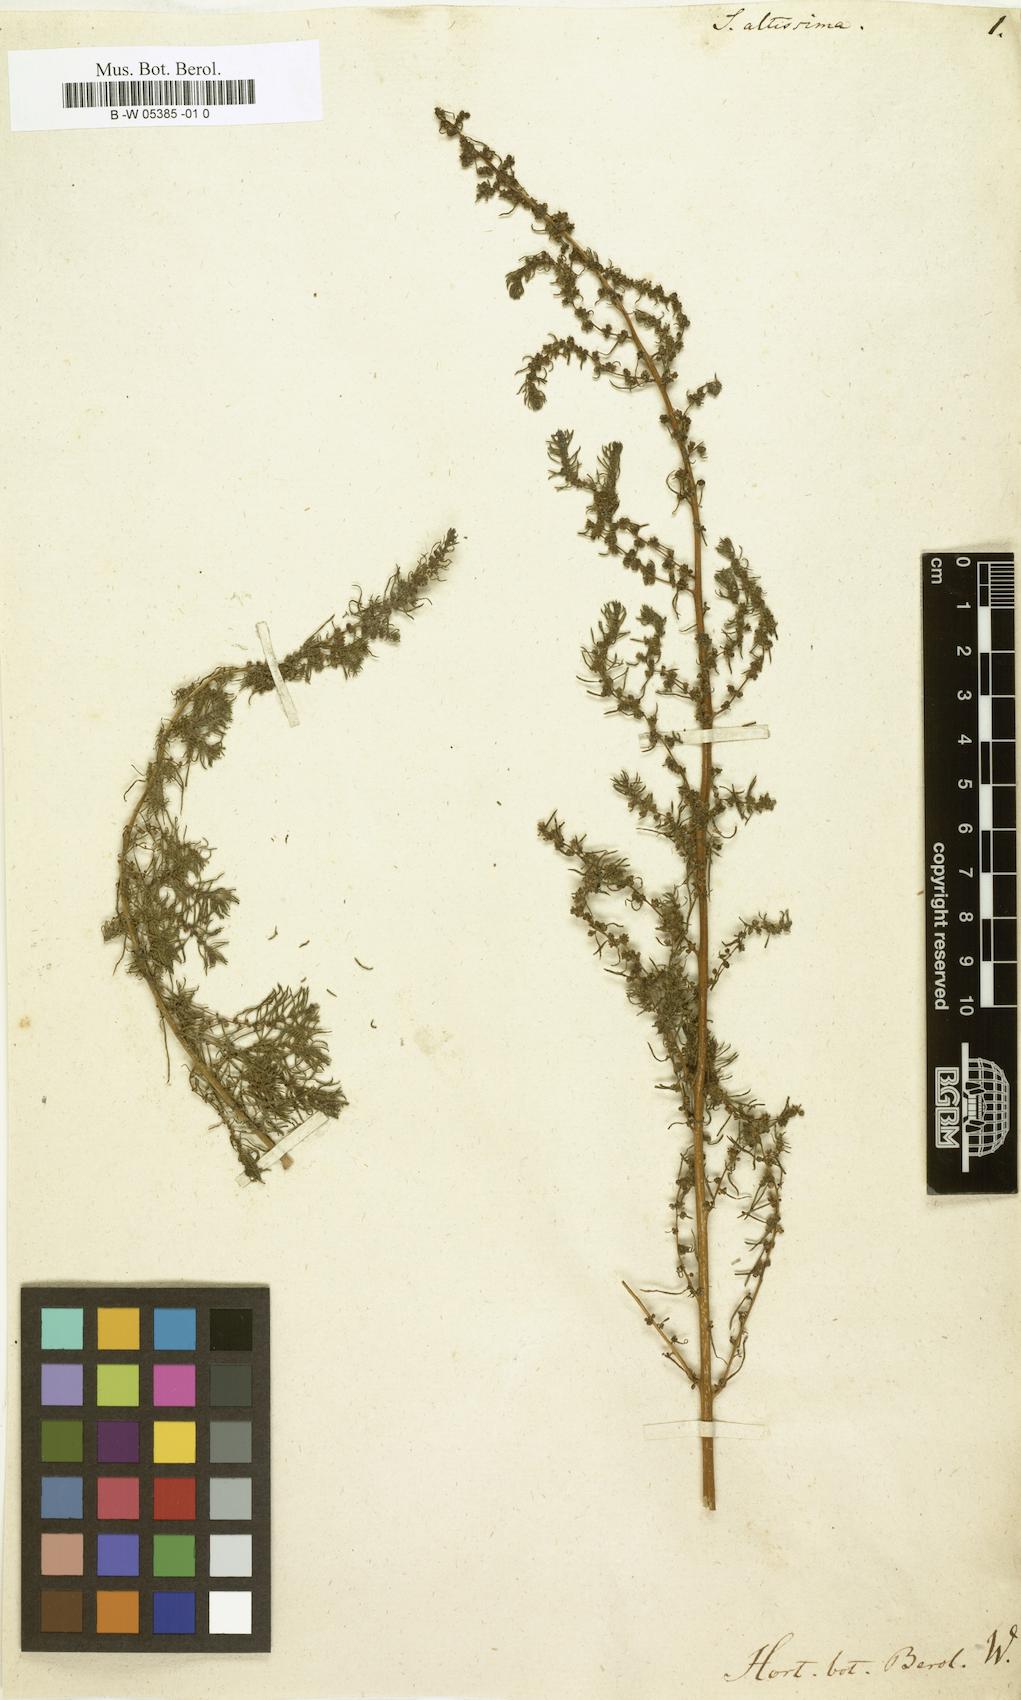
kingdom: Plantae
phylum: Tracheophyta
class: Magnoliopsida
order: Caryophyllales
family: Amaranthaceae
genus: Suaeda
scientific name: Suaeda
